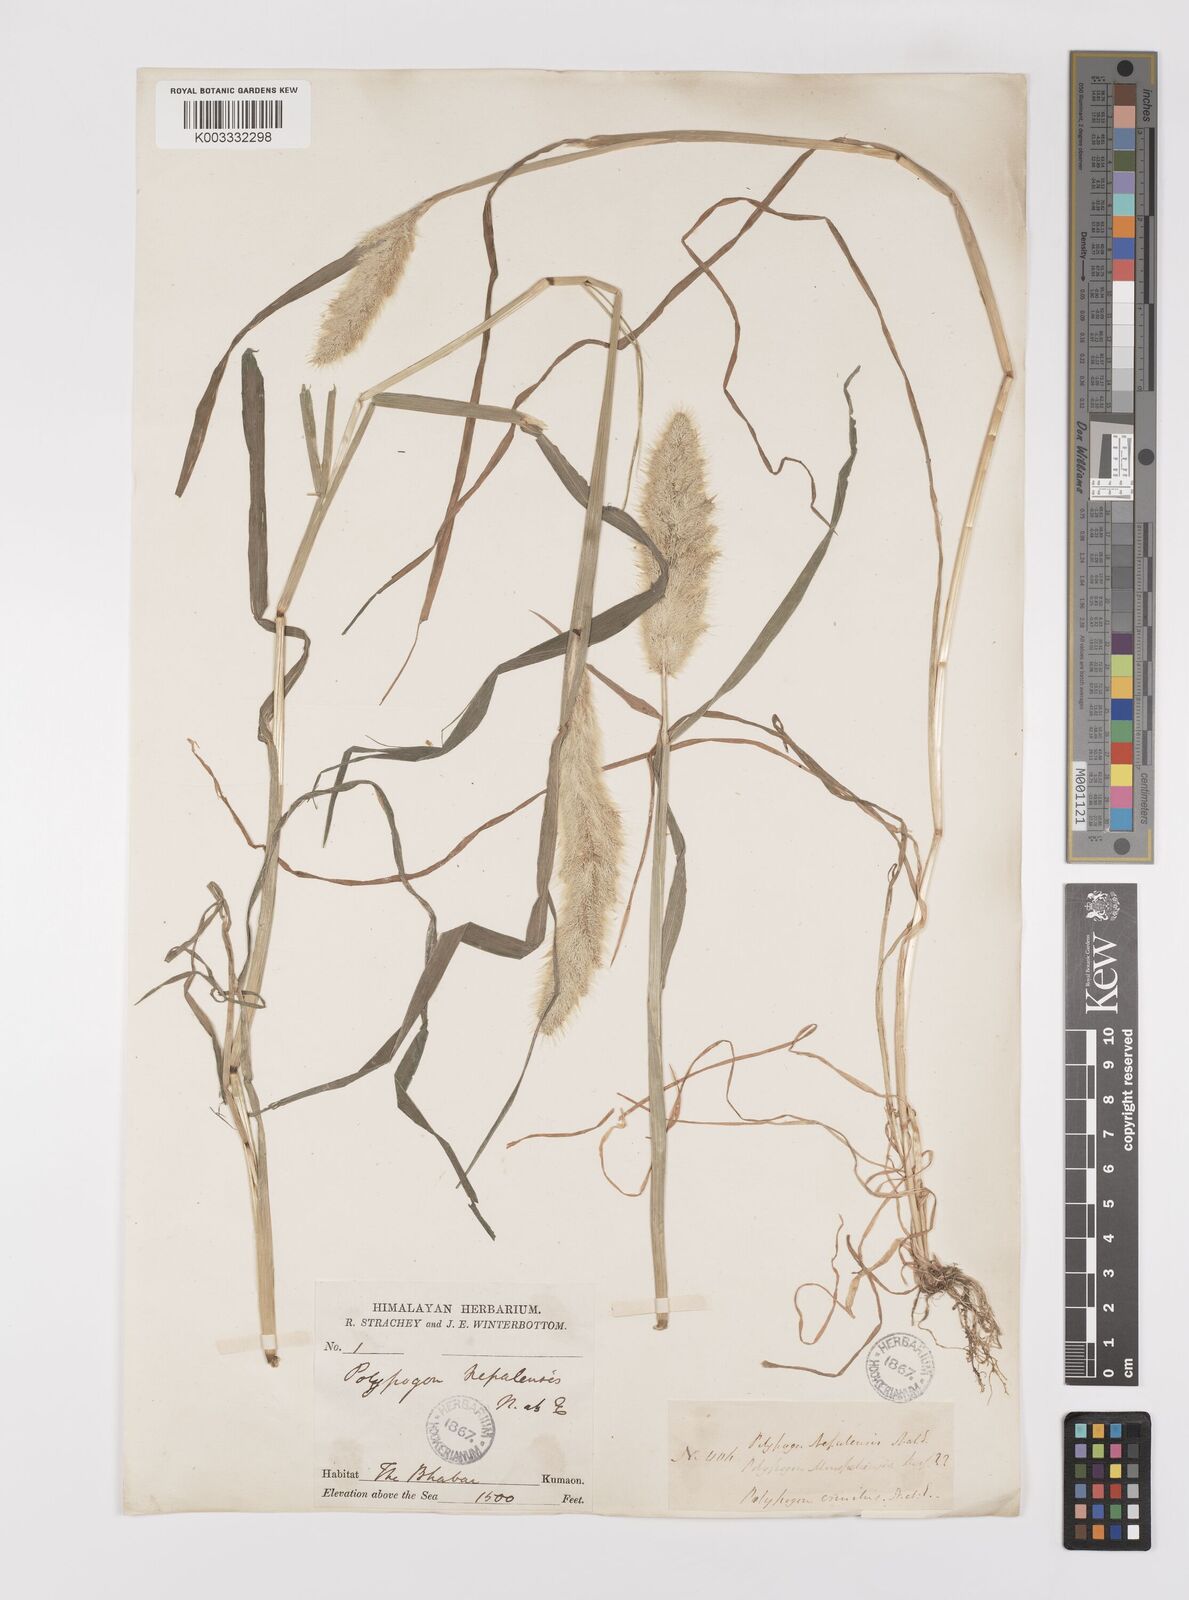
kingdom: Plantae
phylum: Tracheophyta
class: Liliopsida
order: Poales
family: Poaceae
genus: Polypogon
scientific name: Polypogon monspeliensis
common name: Annual rabbitsfoot grass
